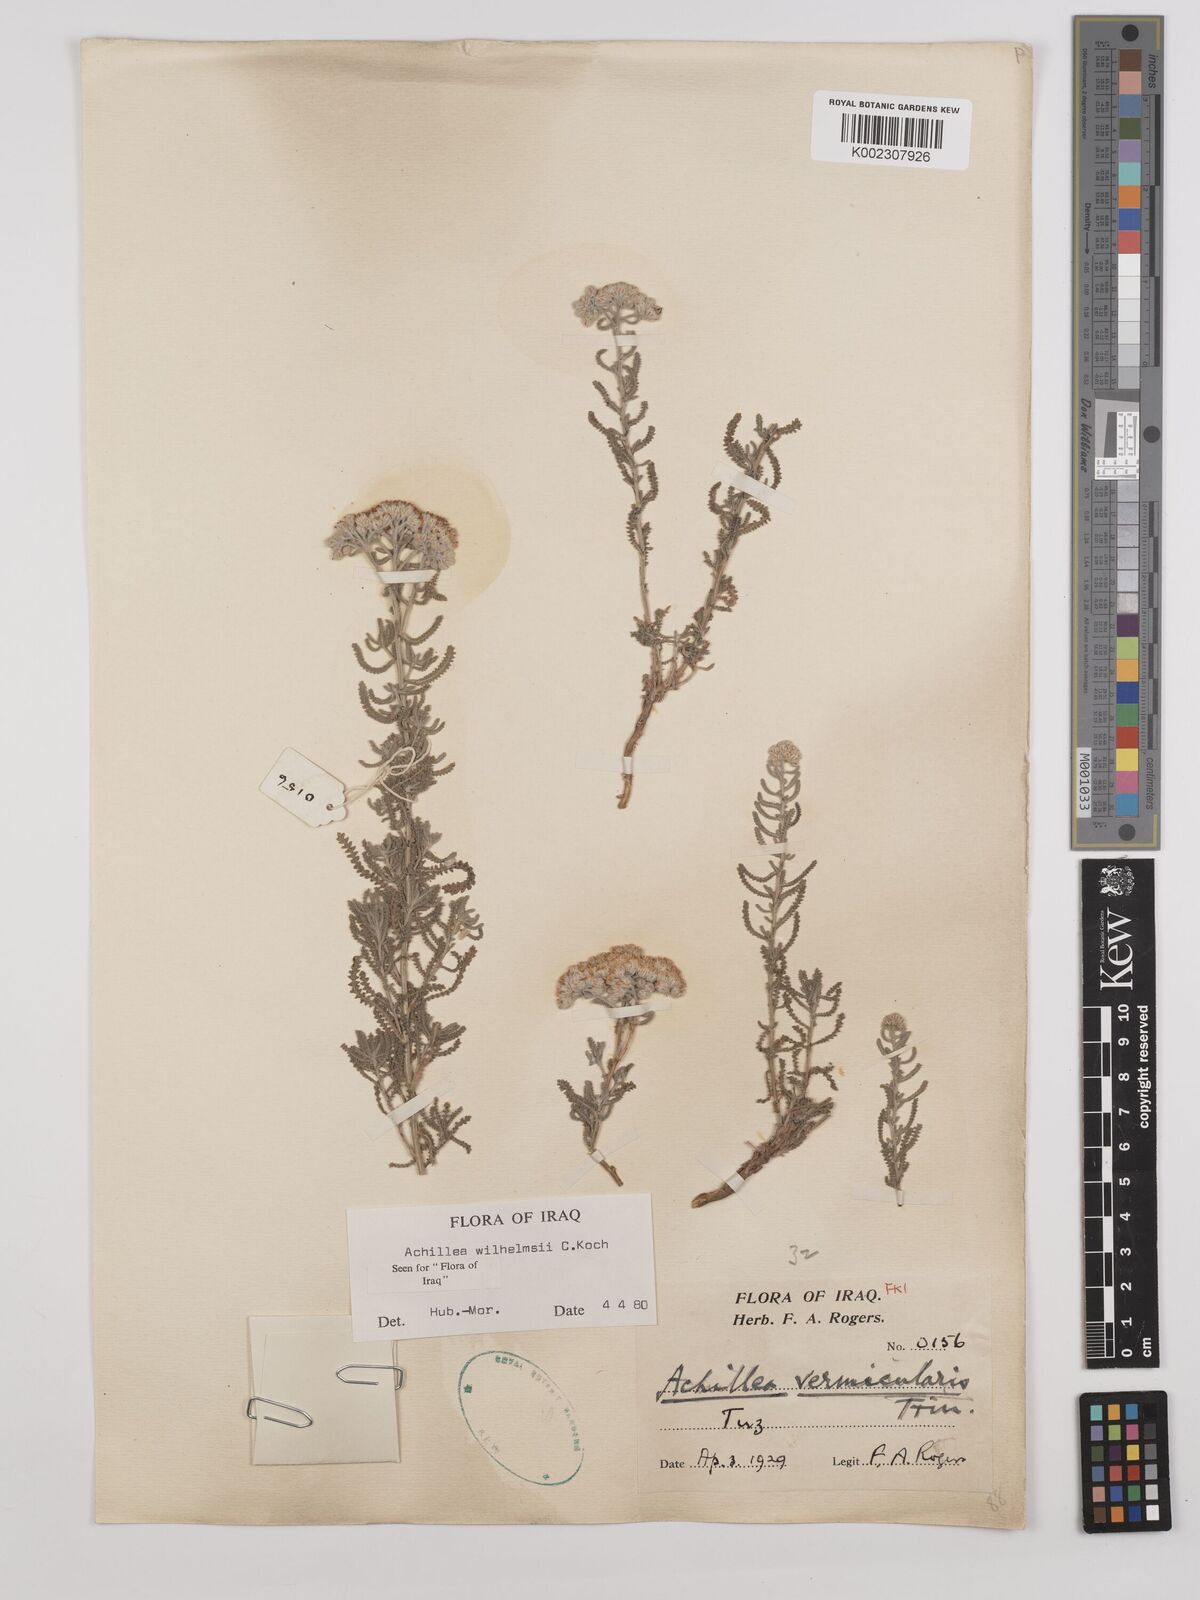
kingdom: Plantae
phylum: Tracheophyta
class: Magnoliopsida
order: Asterales
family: Asteraceae
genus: Achillea
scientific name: Achillea wilhelmsii
